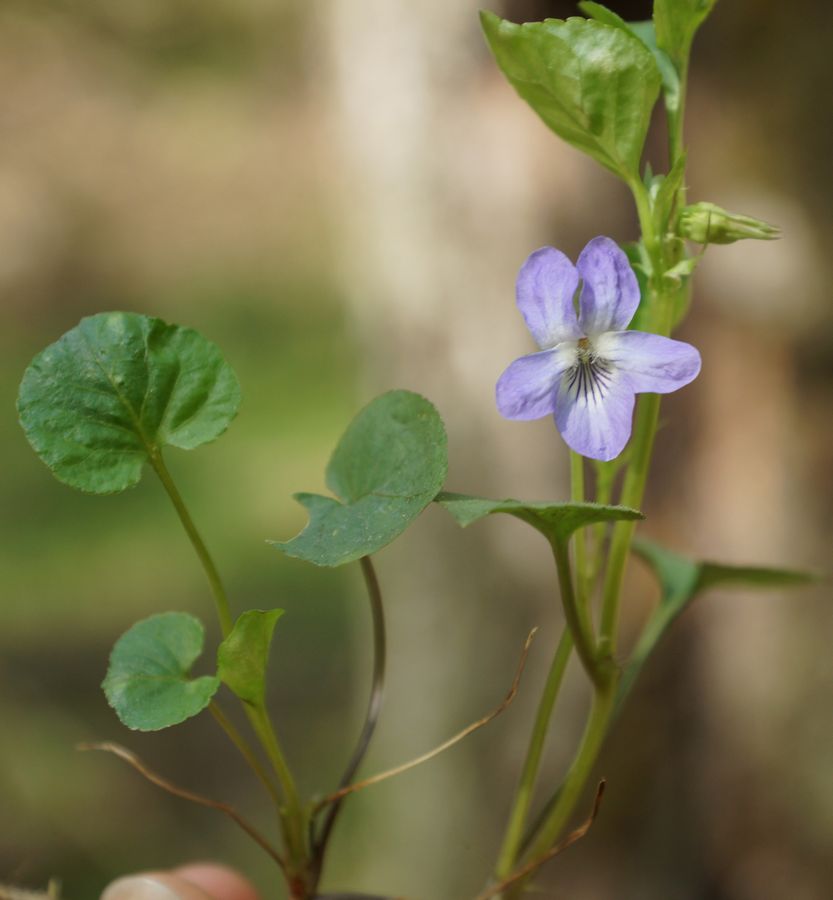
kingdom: Plantae
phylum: Tracheophyta
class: Magnoliopsida
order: Malpighiales
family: Violaceae
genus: Viola
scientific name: Viola rupestris
